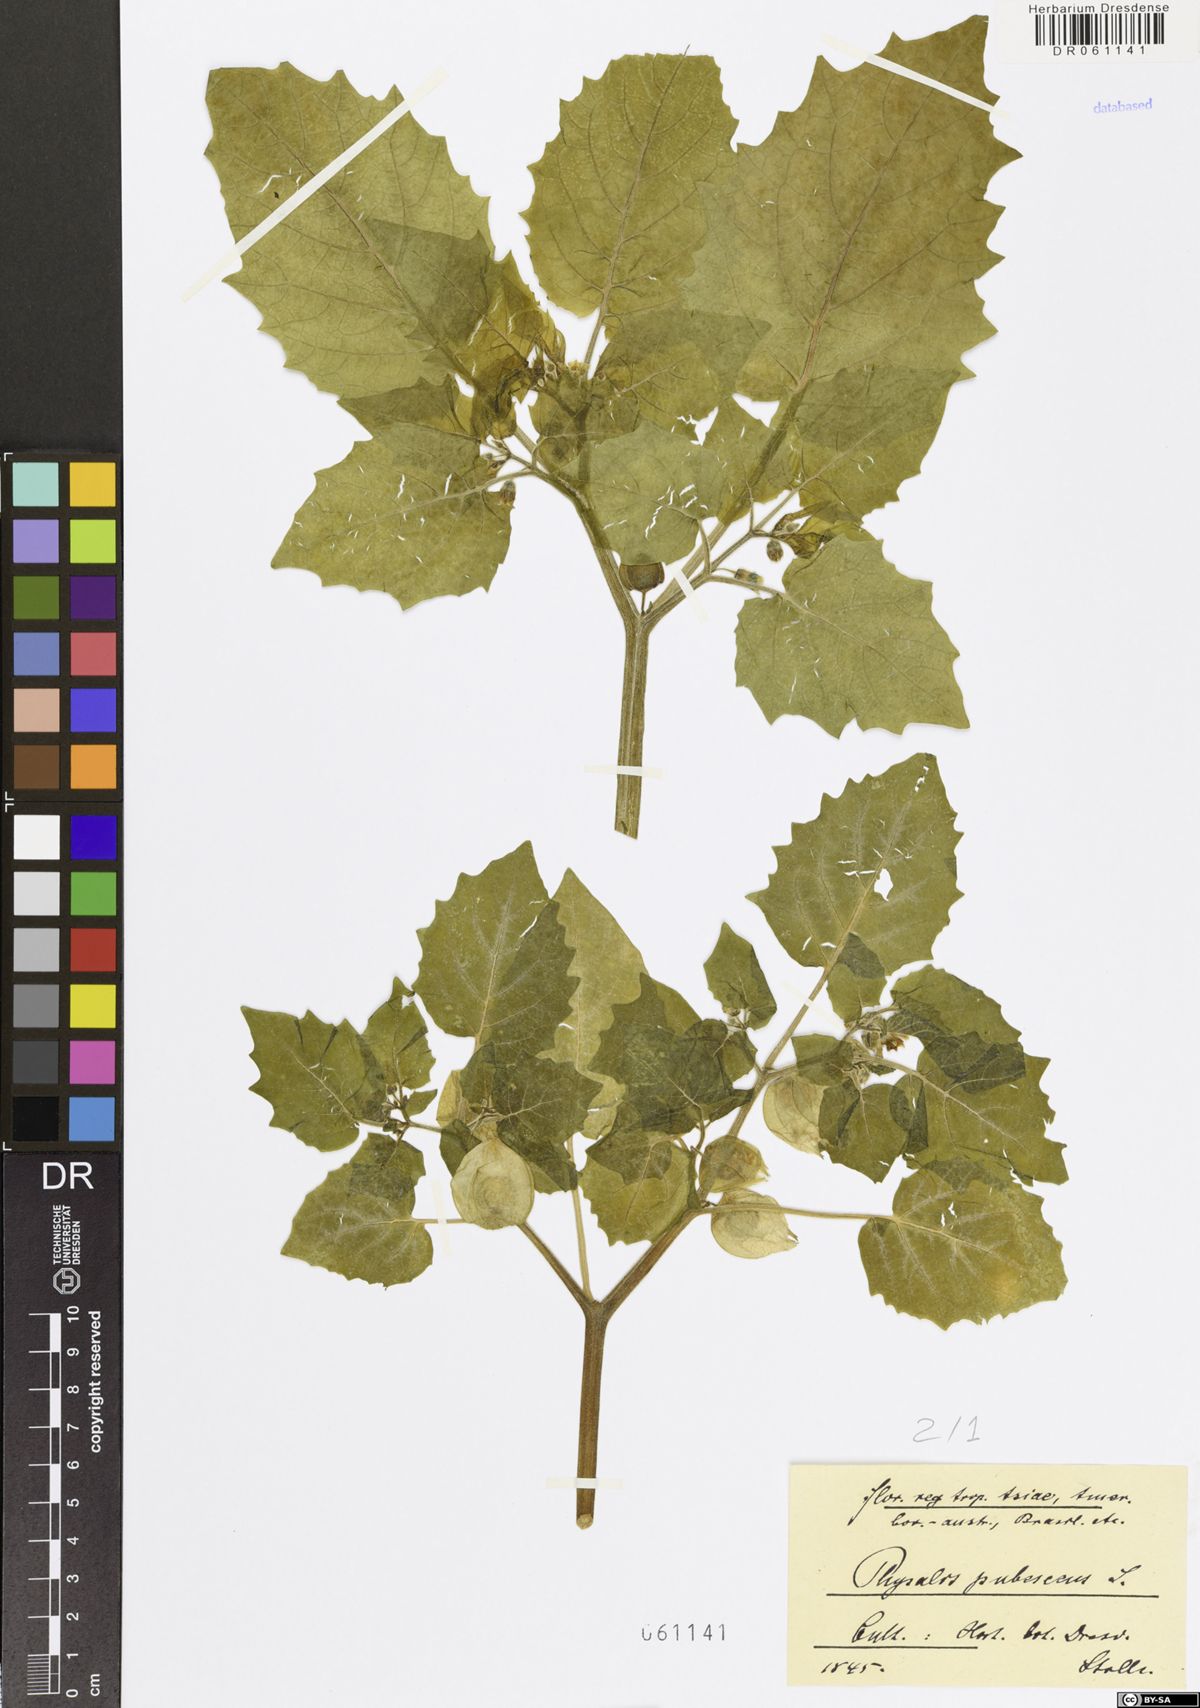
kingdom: Plantae
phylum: Tracheophyta
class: Magnoliopsida
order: Solanales
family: Solanaceae
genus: Physalis
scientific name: Physalis pubescens
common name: Downy ground-cherry
